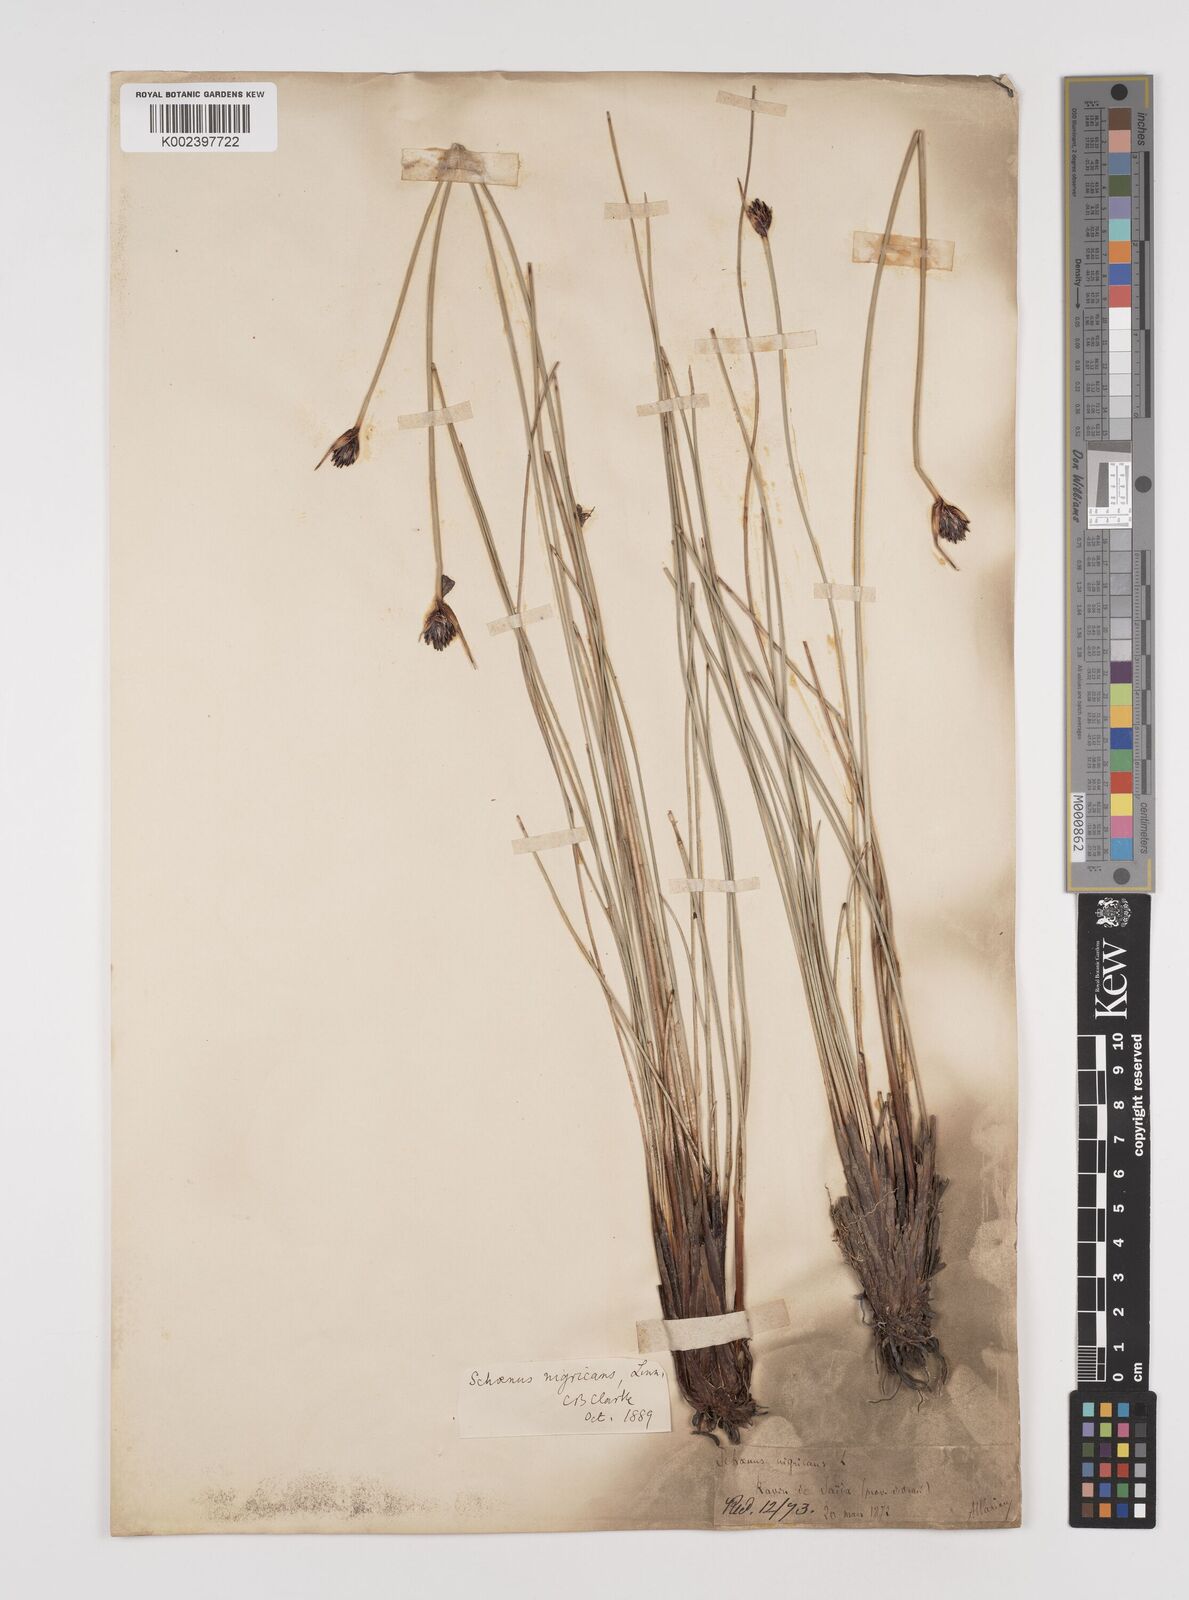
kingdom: Plantae
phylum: Tracheophyta
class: Liliopsida
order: Poales
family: Cyperaceae
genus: Schoenus
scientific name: Schoenus nigricans
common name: Black bog-rush
